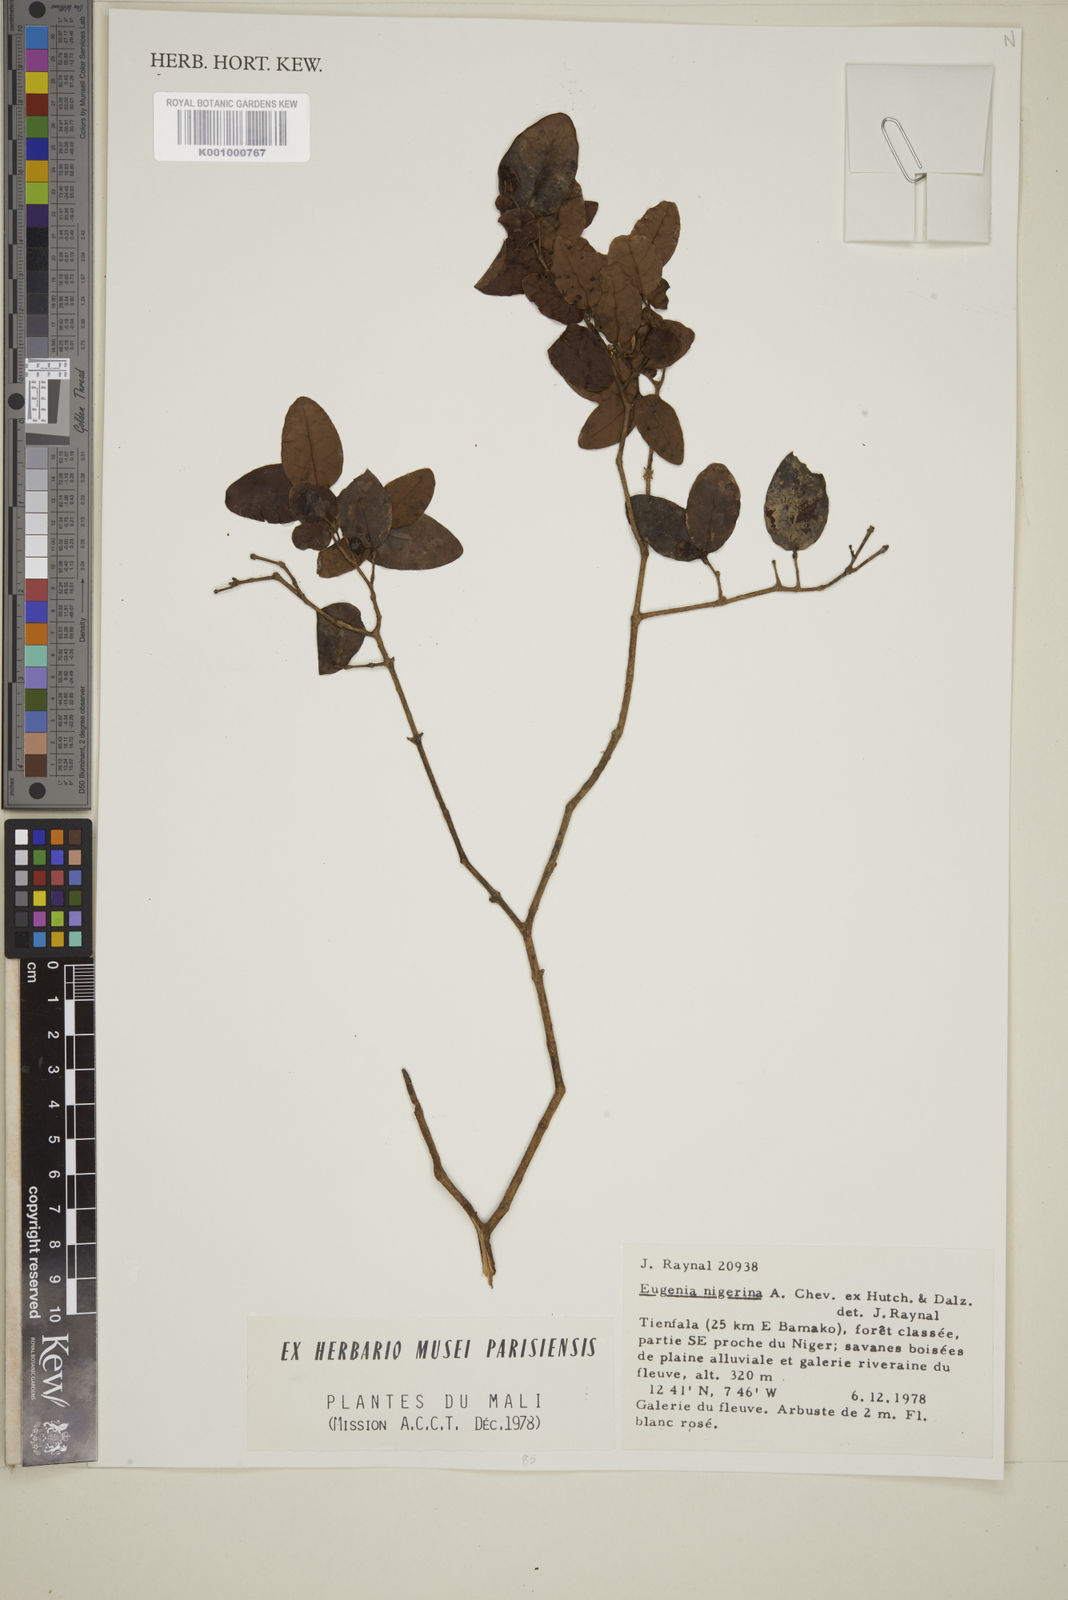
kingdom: Plantae
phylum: Tracheophyta
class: Magnoliopsida
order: Myrtales
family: Myrtaceae
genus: Eugenia
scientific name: Eugenia nigerina
